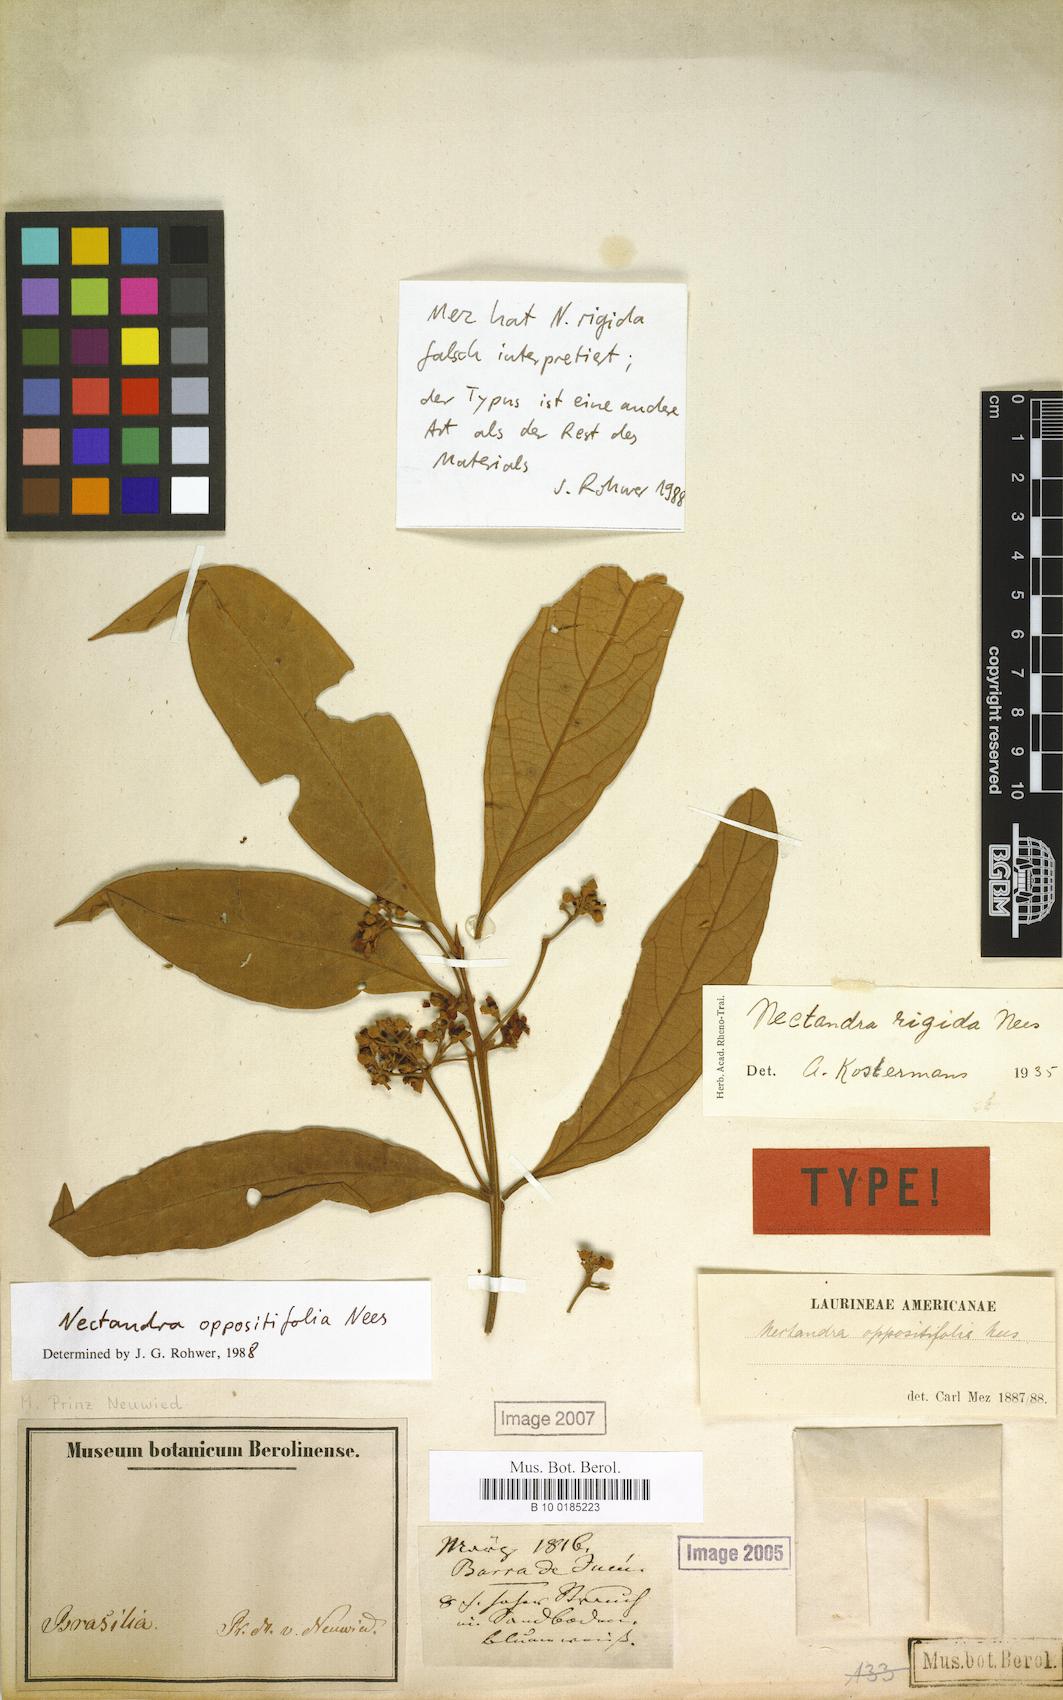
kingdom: Plantae
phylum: Tracheophyta
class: Magnoliopsida
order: Laurales
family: Lauraceae
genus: Nectandra
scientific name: Nectandra oppositifolia
